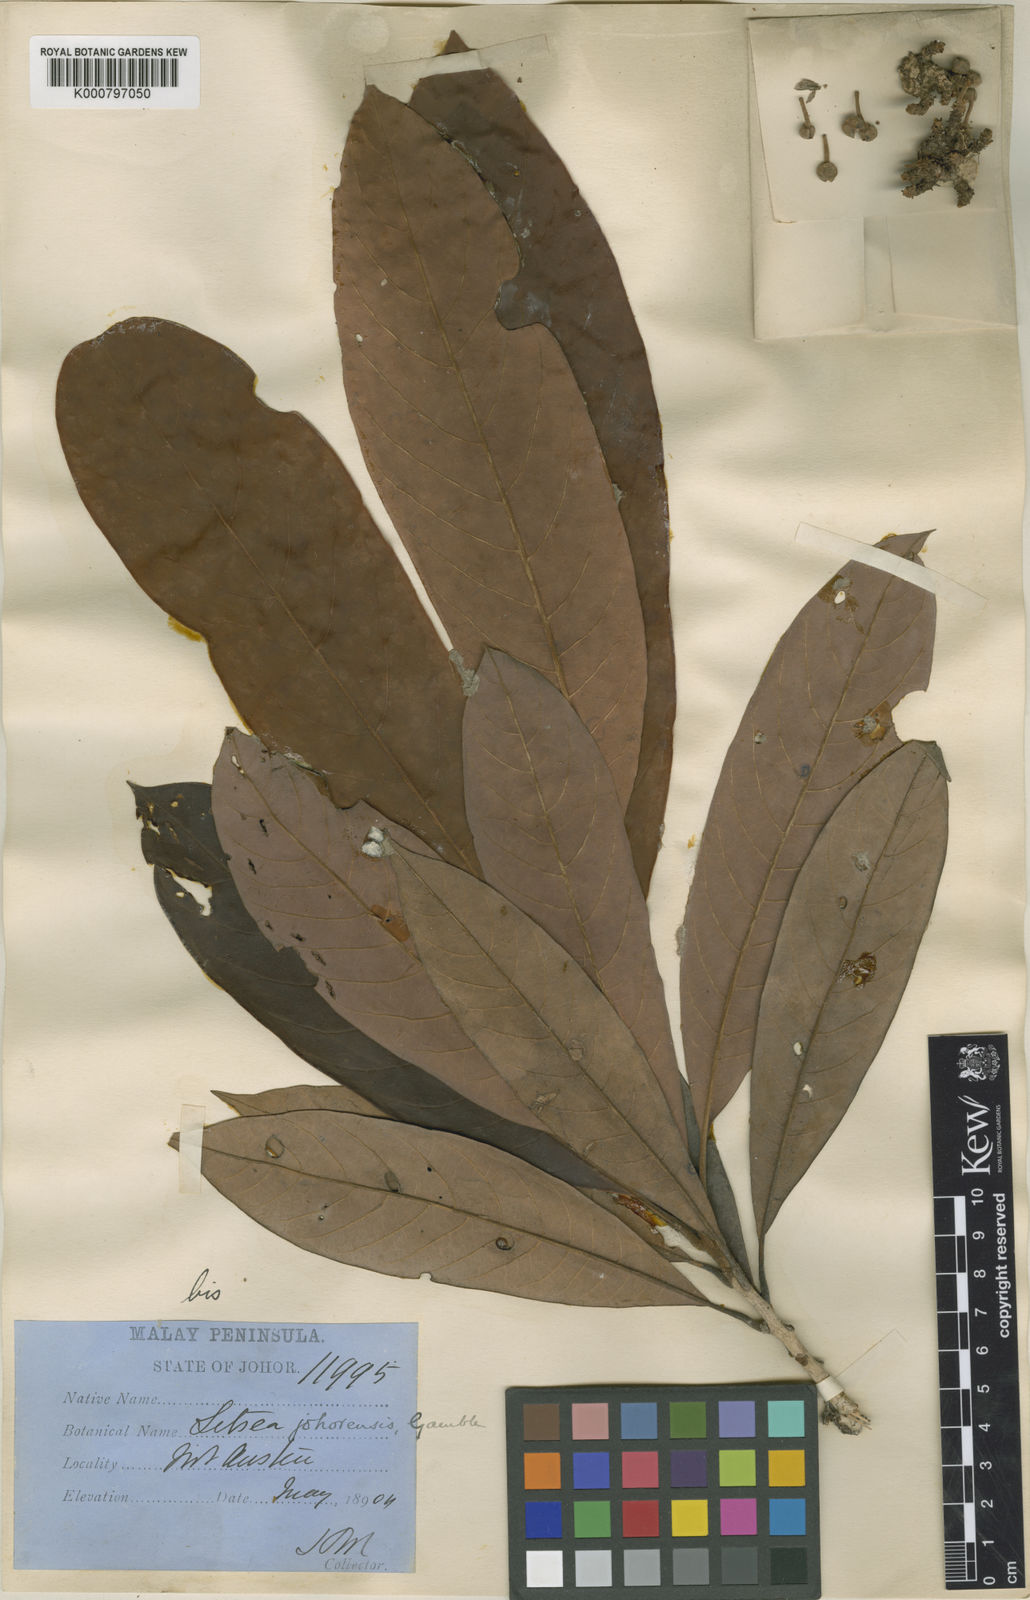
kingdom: Plantae
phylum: Tracheophyta
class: Magnoliopsida
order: Laurales
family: Lauraceae
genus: Litsea
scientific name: Litsea johorensis
